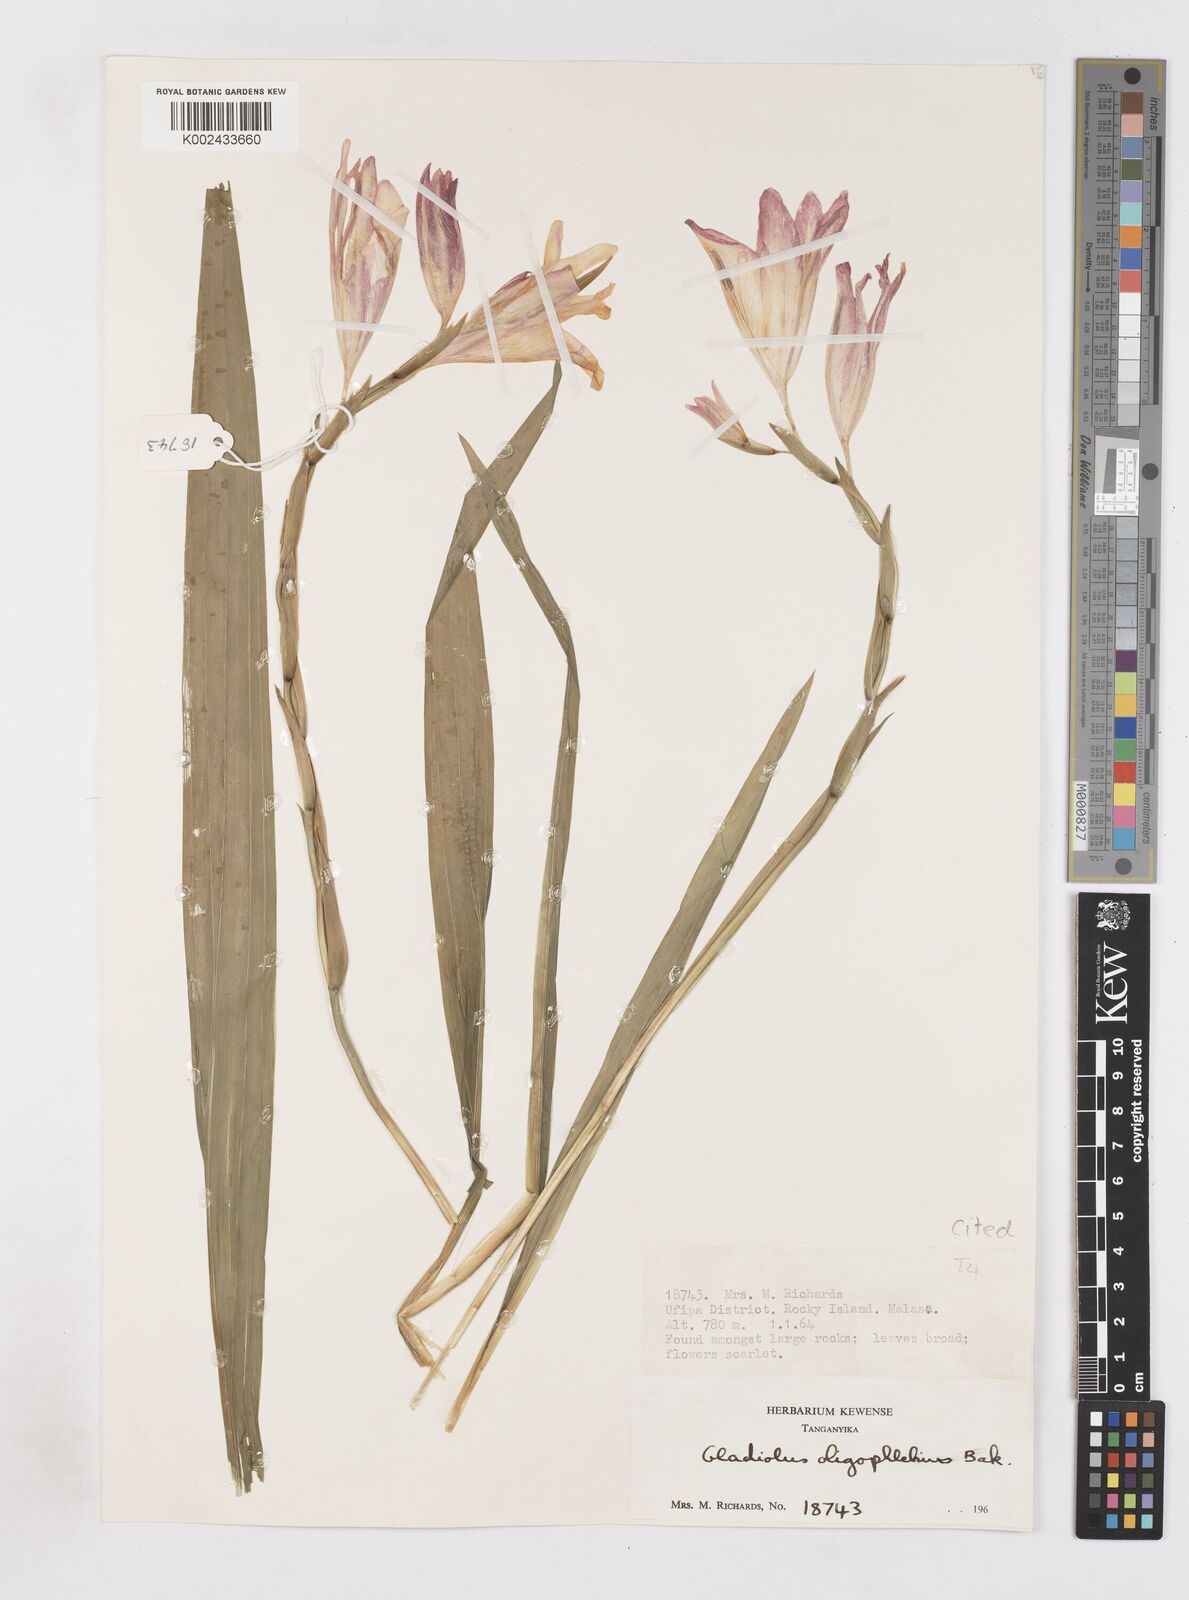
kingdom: Plantae
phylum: Tracheophyta
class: Liliopsida
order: Asparagales
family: Iridaceae
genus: Gladiolus
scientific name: Gladiolus oligophlebius
